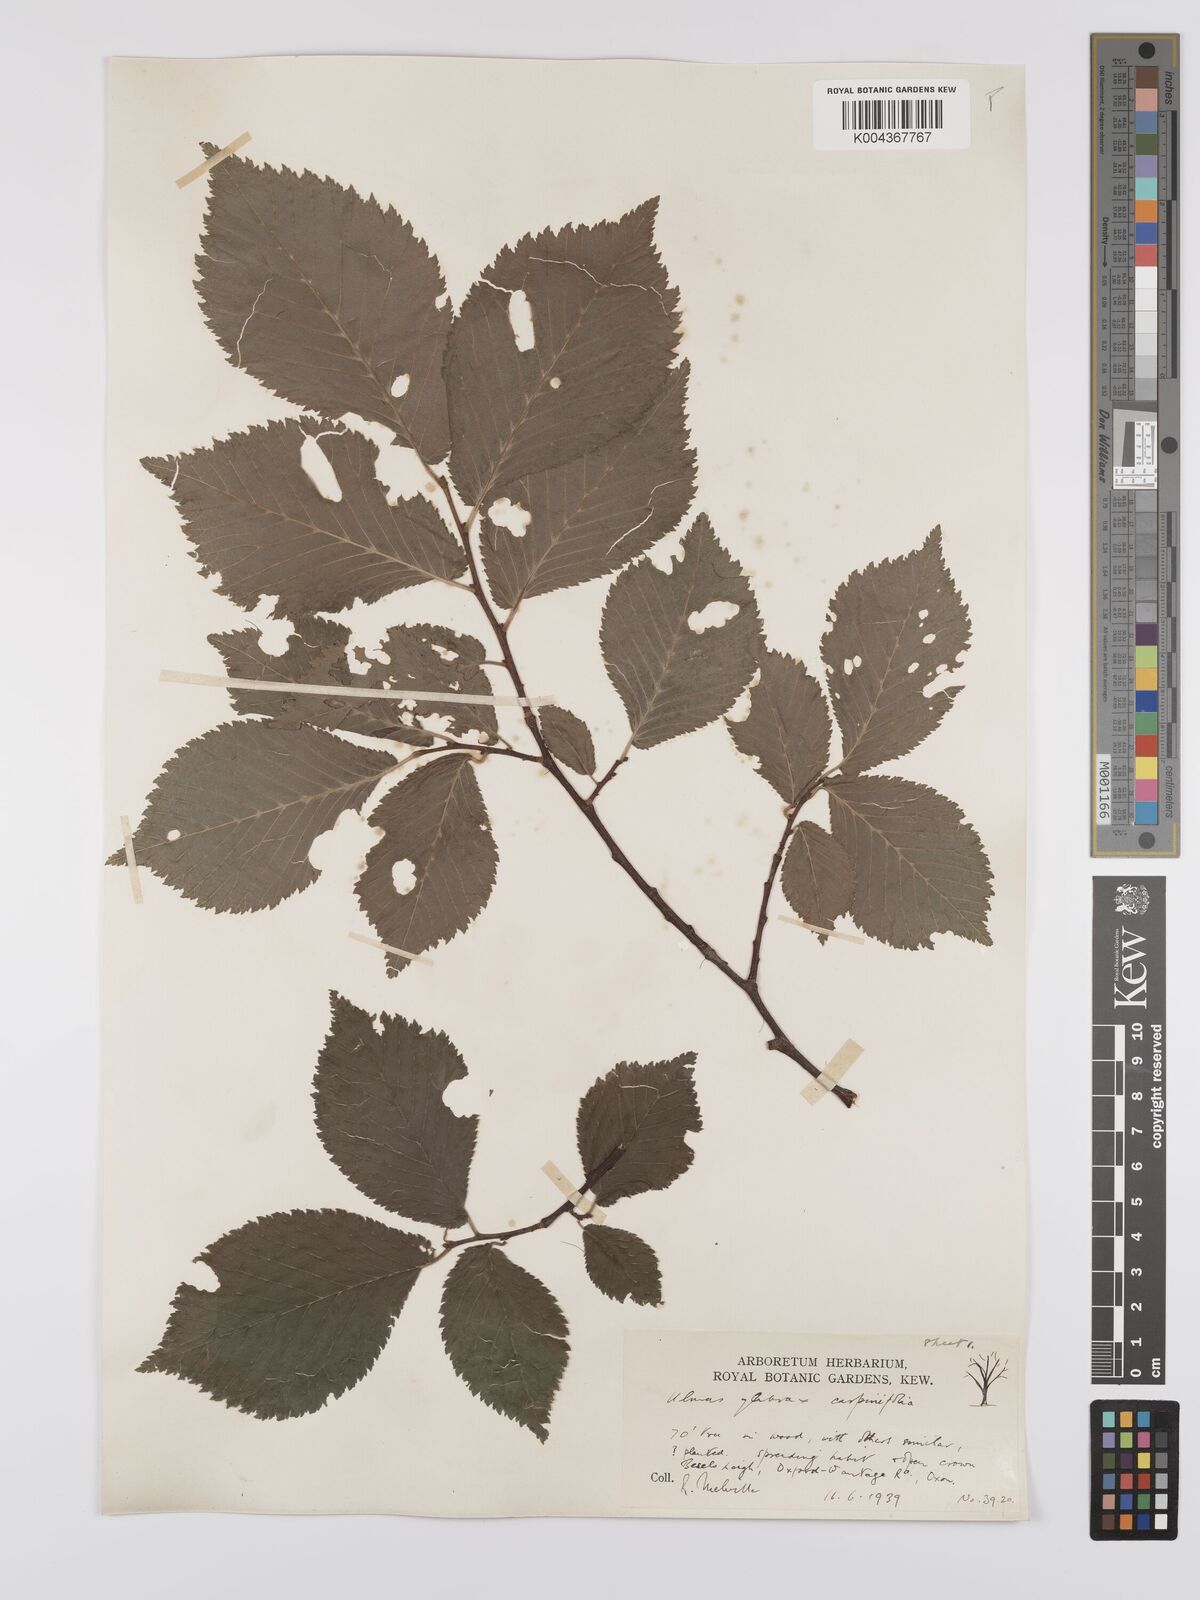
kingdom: Plantae
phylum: Tracheophyta
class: Magnoliopsida
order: Rosales
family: Ulmaceae
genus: Ulmus
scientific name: Ulmus
